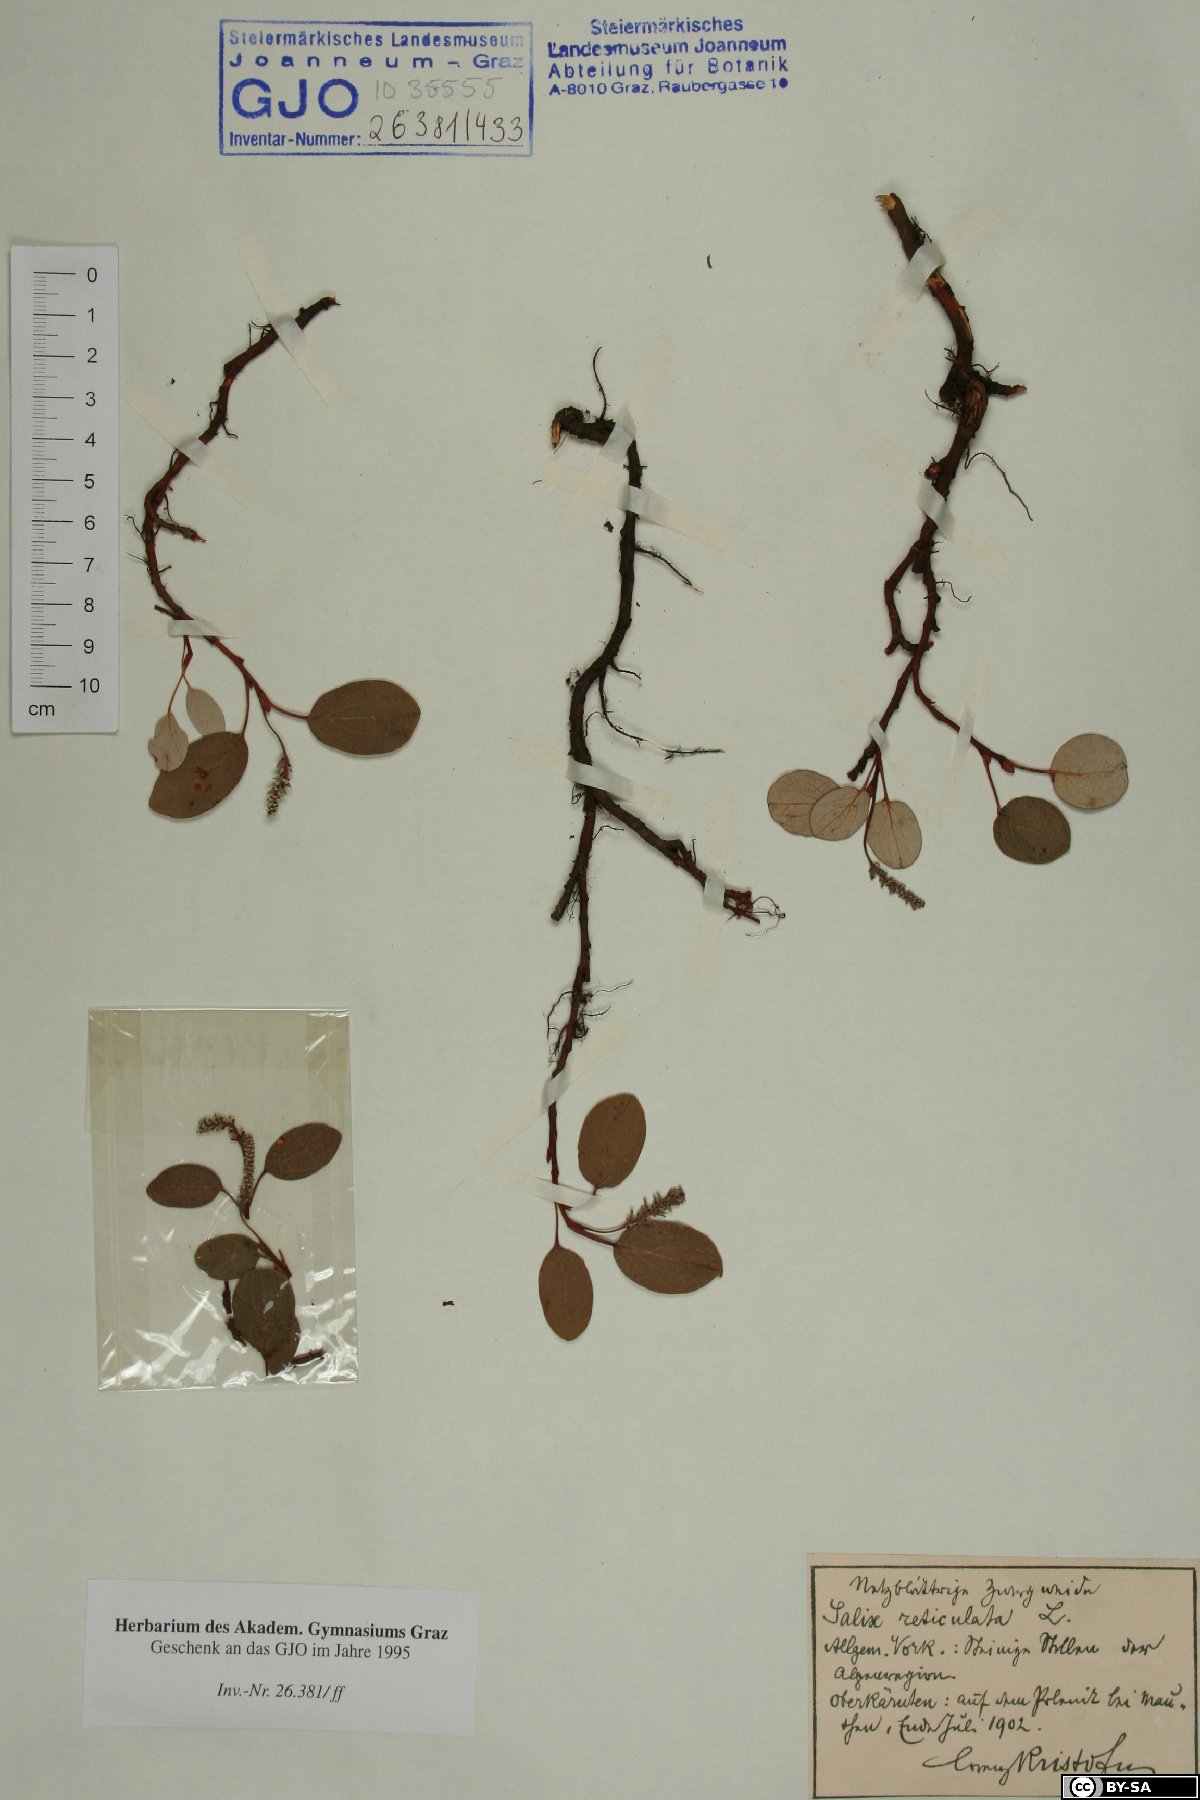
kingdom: Plantae
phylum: Tracheophyta
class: Magnoliopsida
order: Malpighiales
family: Salicaceae
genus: Salix
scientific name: Salix reticulata
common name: Net-leaved willow
